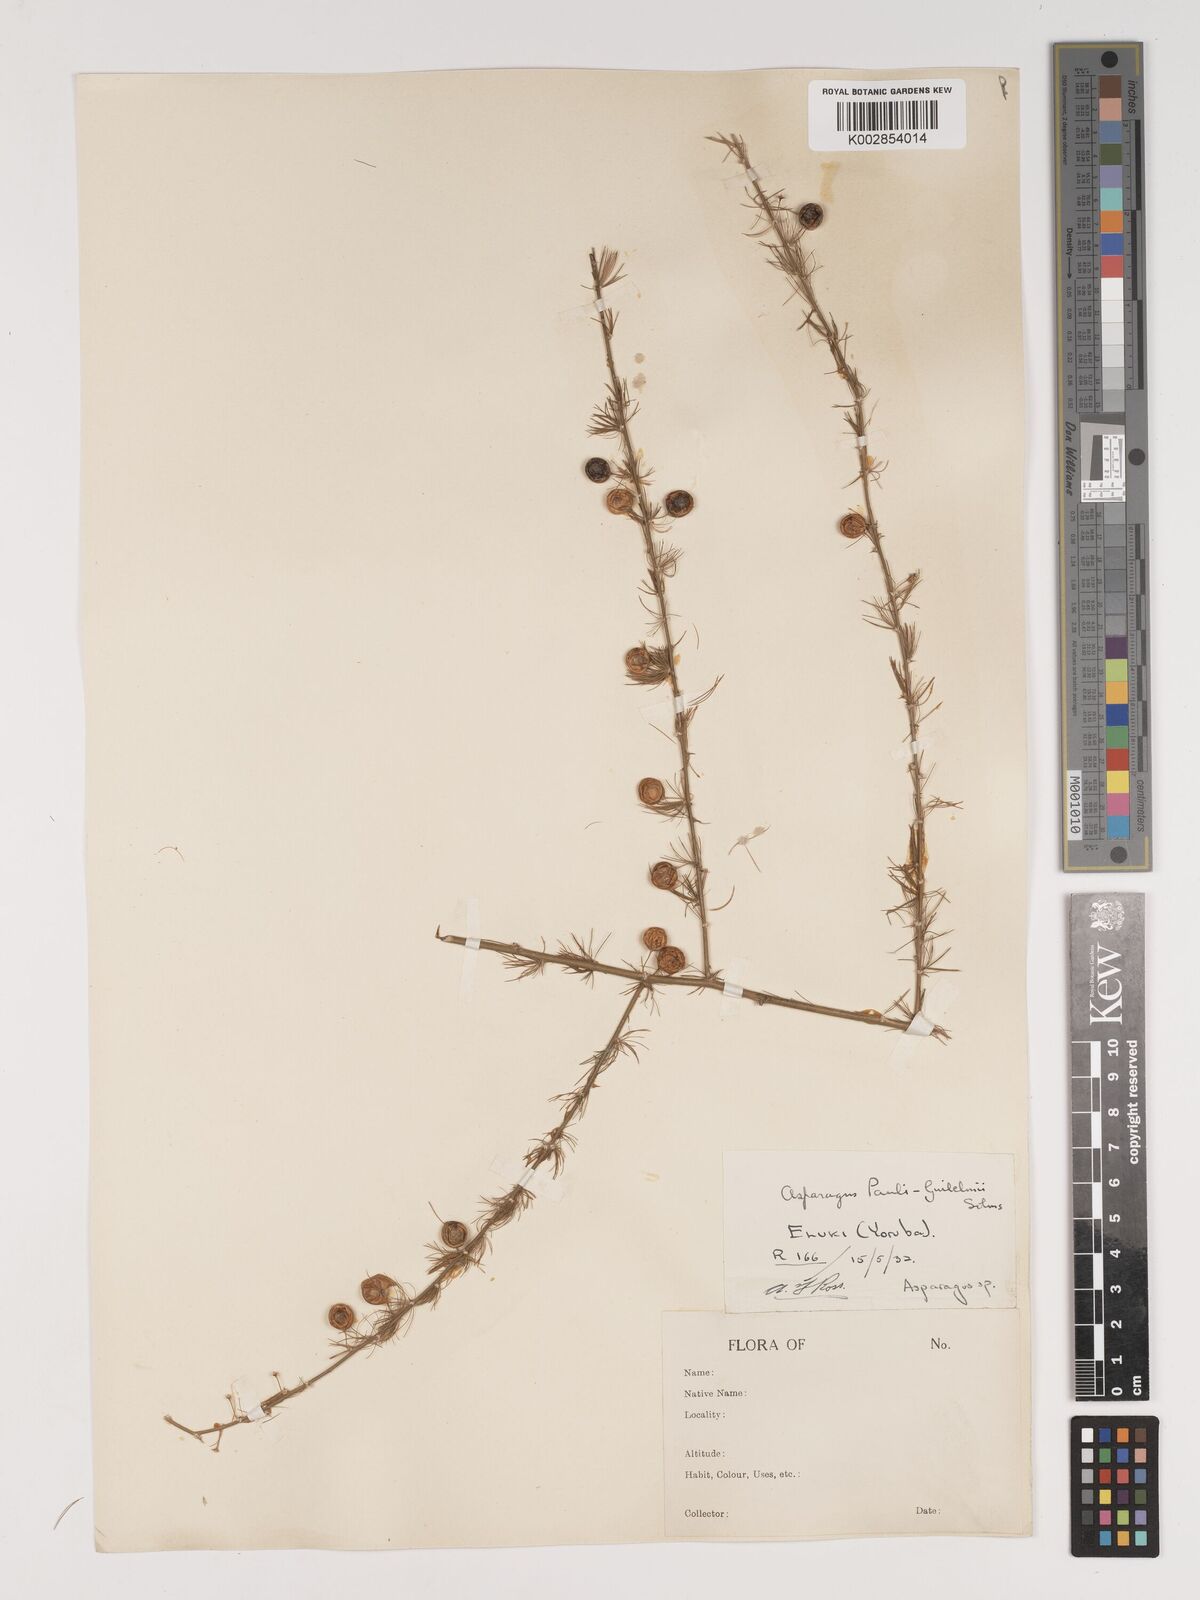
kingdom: Plantae
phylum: Tracheophyta
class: Liliopsida
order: Asparagales
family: Asparagaceae
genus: Asparagus
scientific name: Asparagus flagellaris
